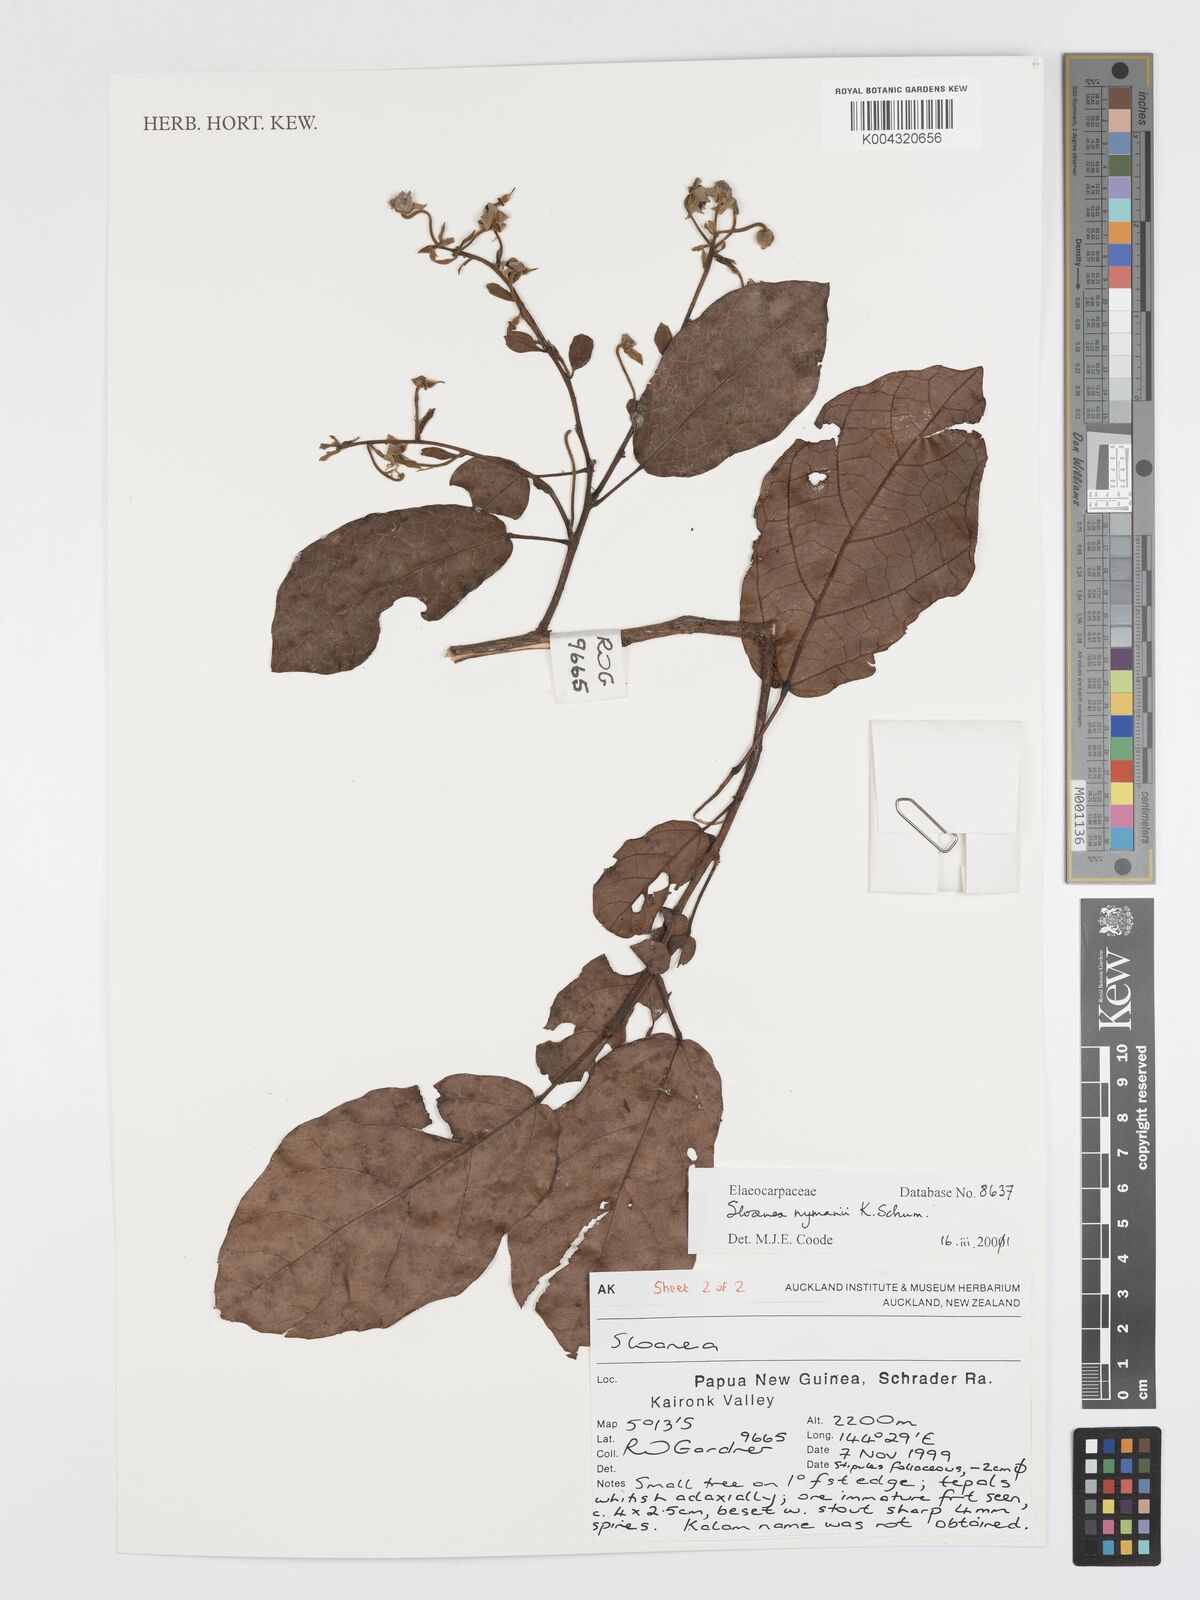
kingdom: Plantae
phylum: Tracheophyta
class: Magnoliopsida
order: Oxalidales
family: Elaeocarpaceae
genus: Sloanea
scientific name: Sloanea nymanii
